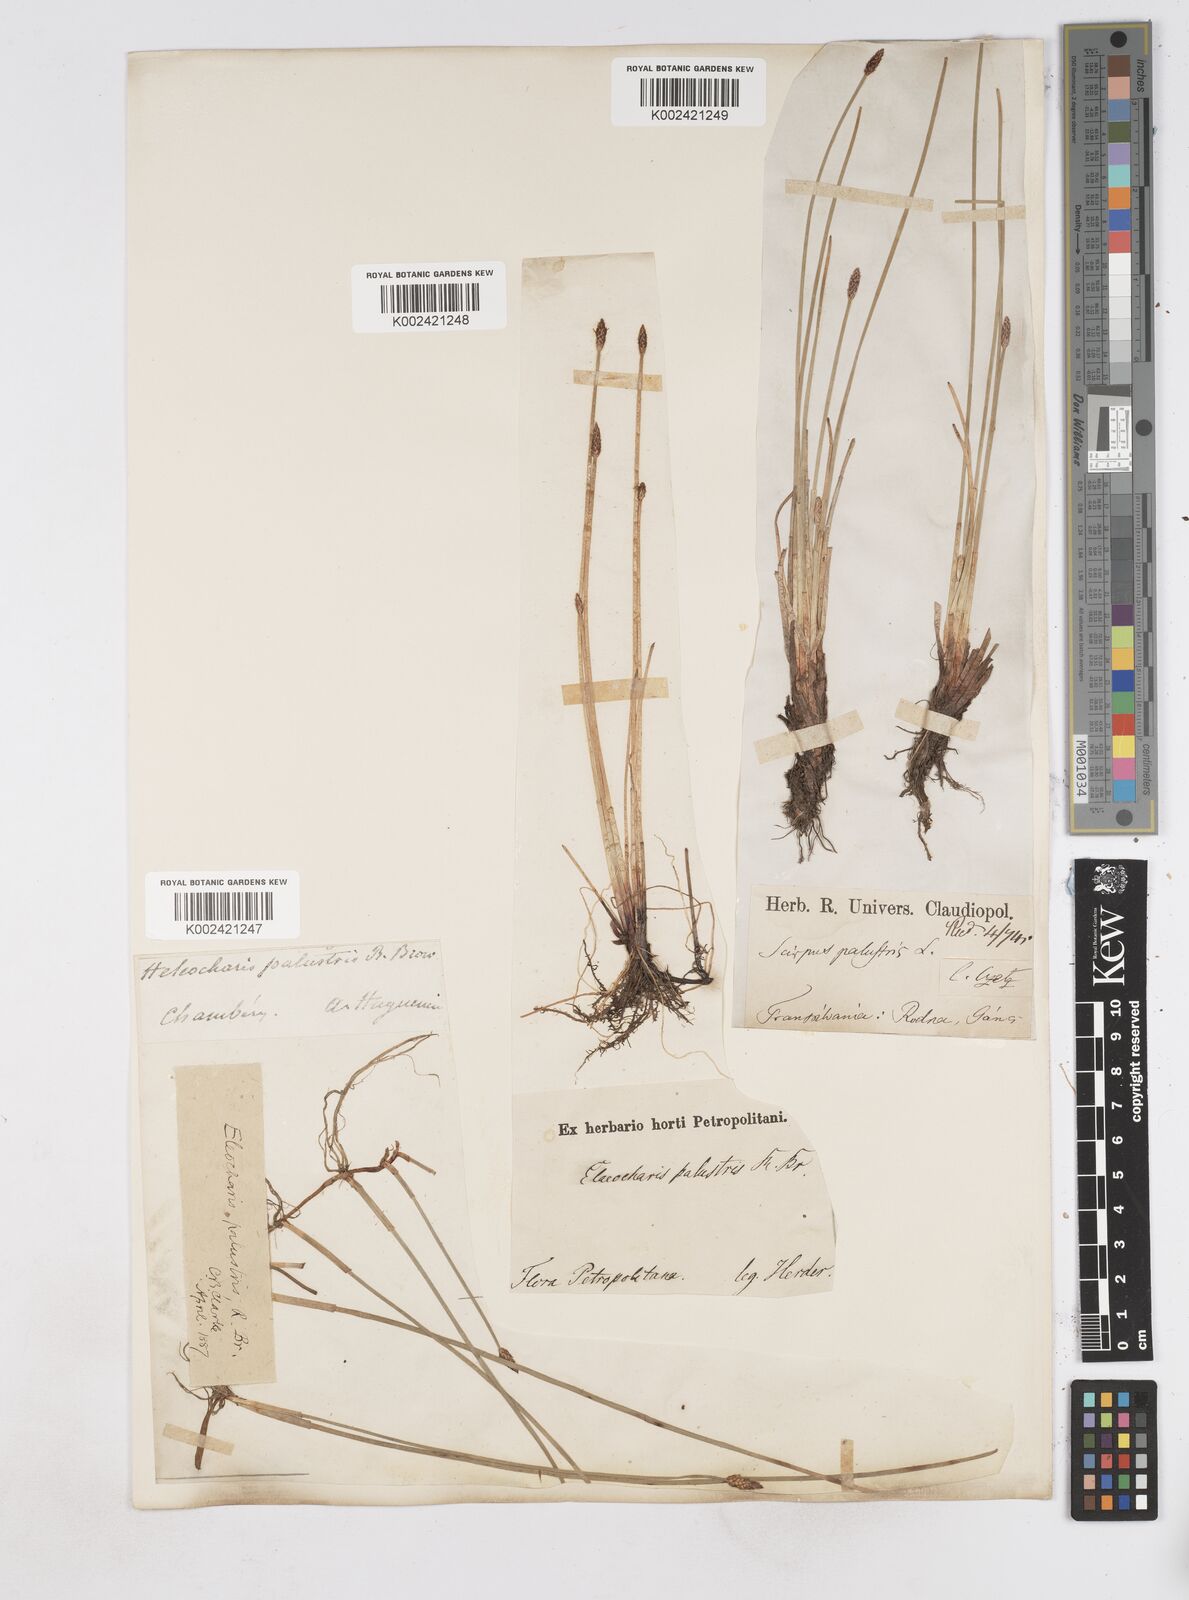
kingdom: Plantae
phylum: Tracheophyta
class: Liliopsida
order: Poales
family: Cyperaceae
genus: Eleocharis
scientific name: Eleocharis palustris
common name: Common spike-rush
